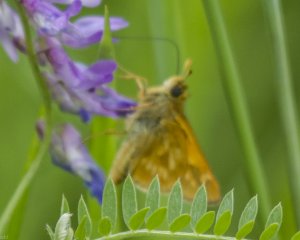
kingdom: Animalia
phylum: Arthropoda
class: Insecta
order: Lepidoptera
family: Hesperiidae
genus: Polites
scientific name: Polites
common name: Long Dash Skipper
